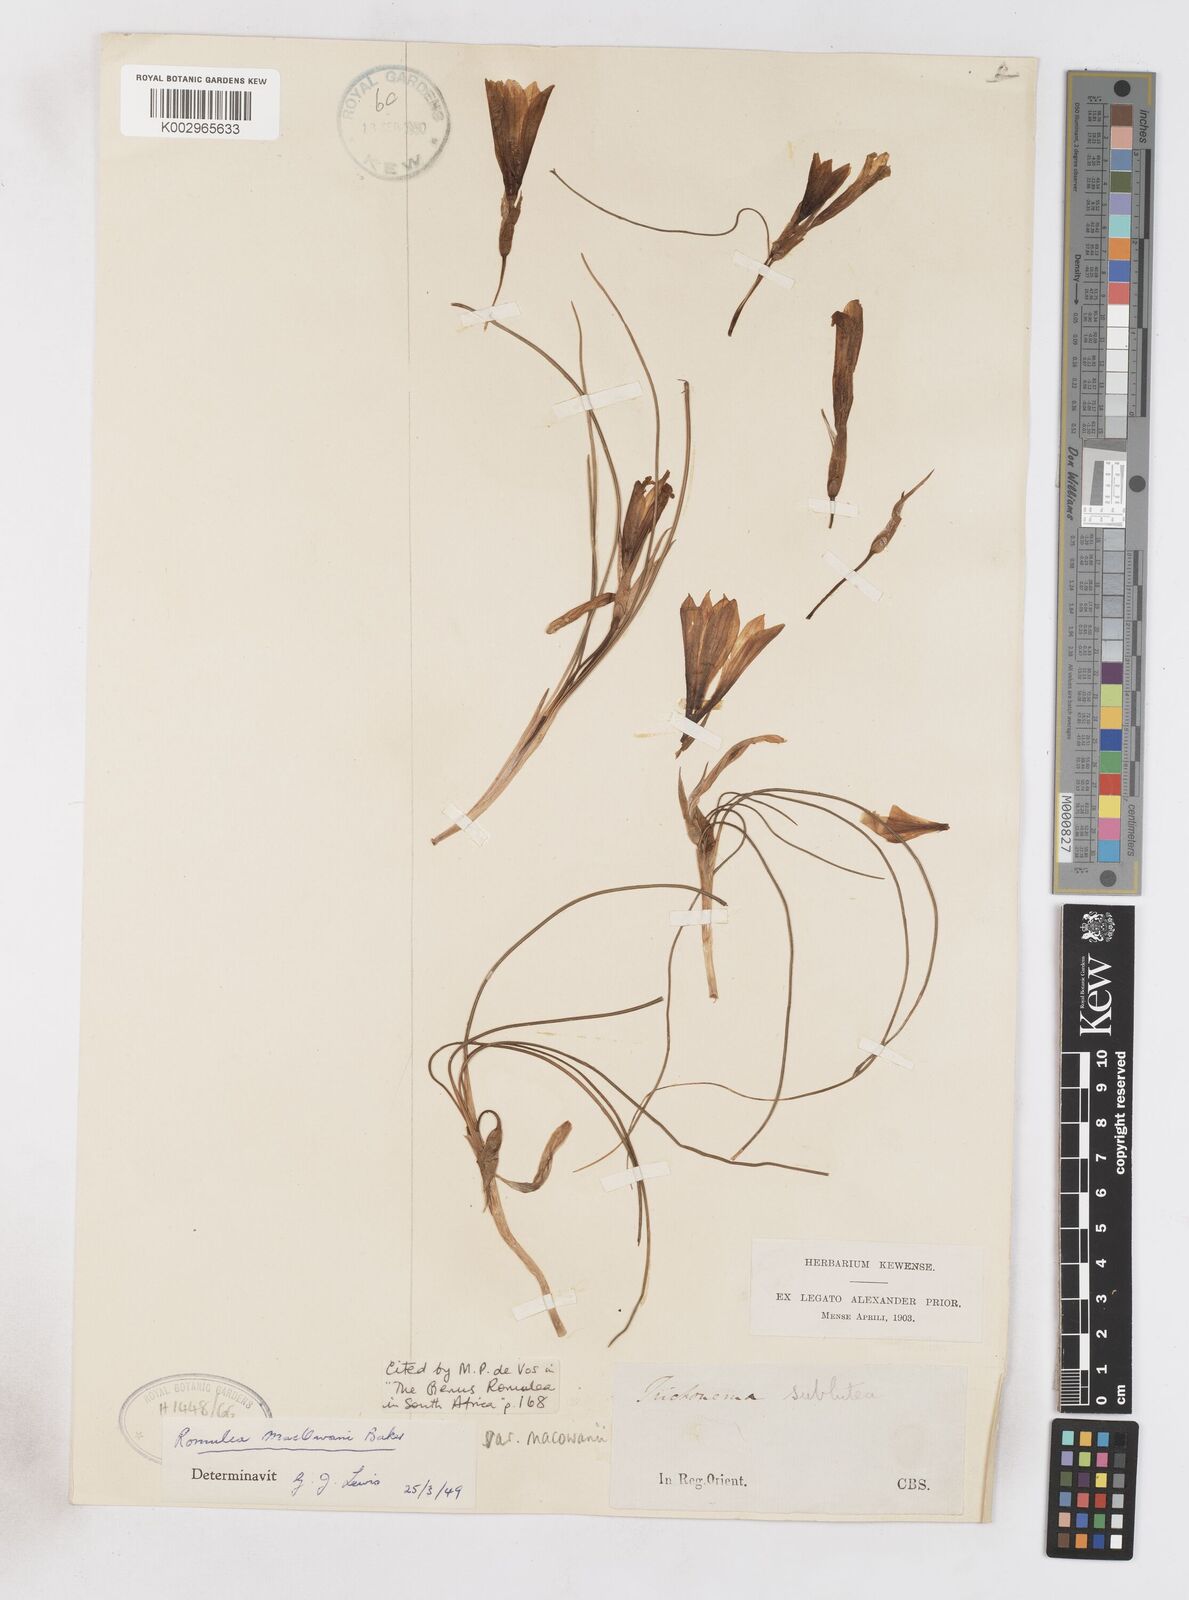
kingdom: Plantae
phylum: Tracheophyta
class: Liliopsida
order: Asparagales
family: Iridaceae
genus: Romulea
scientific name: Romulea macowanii
